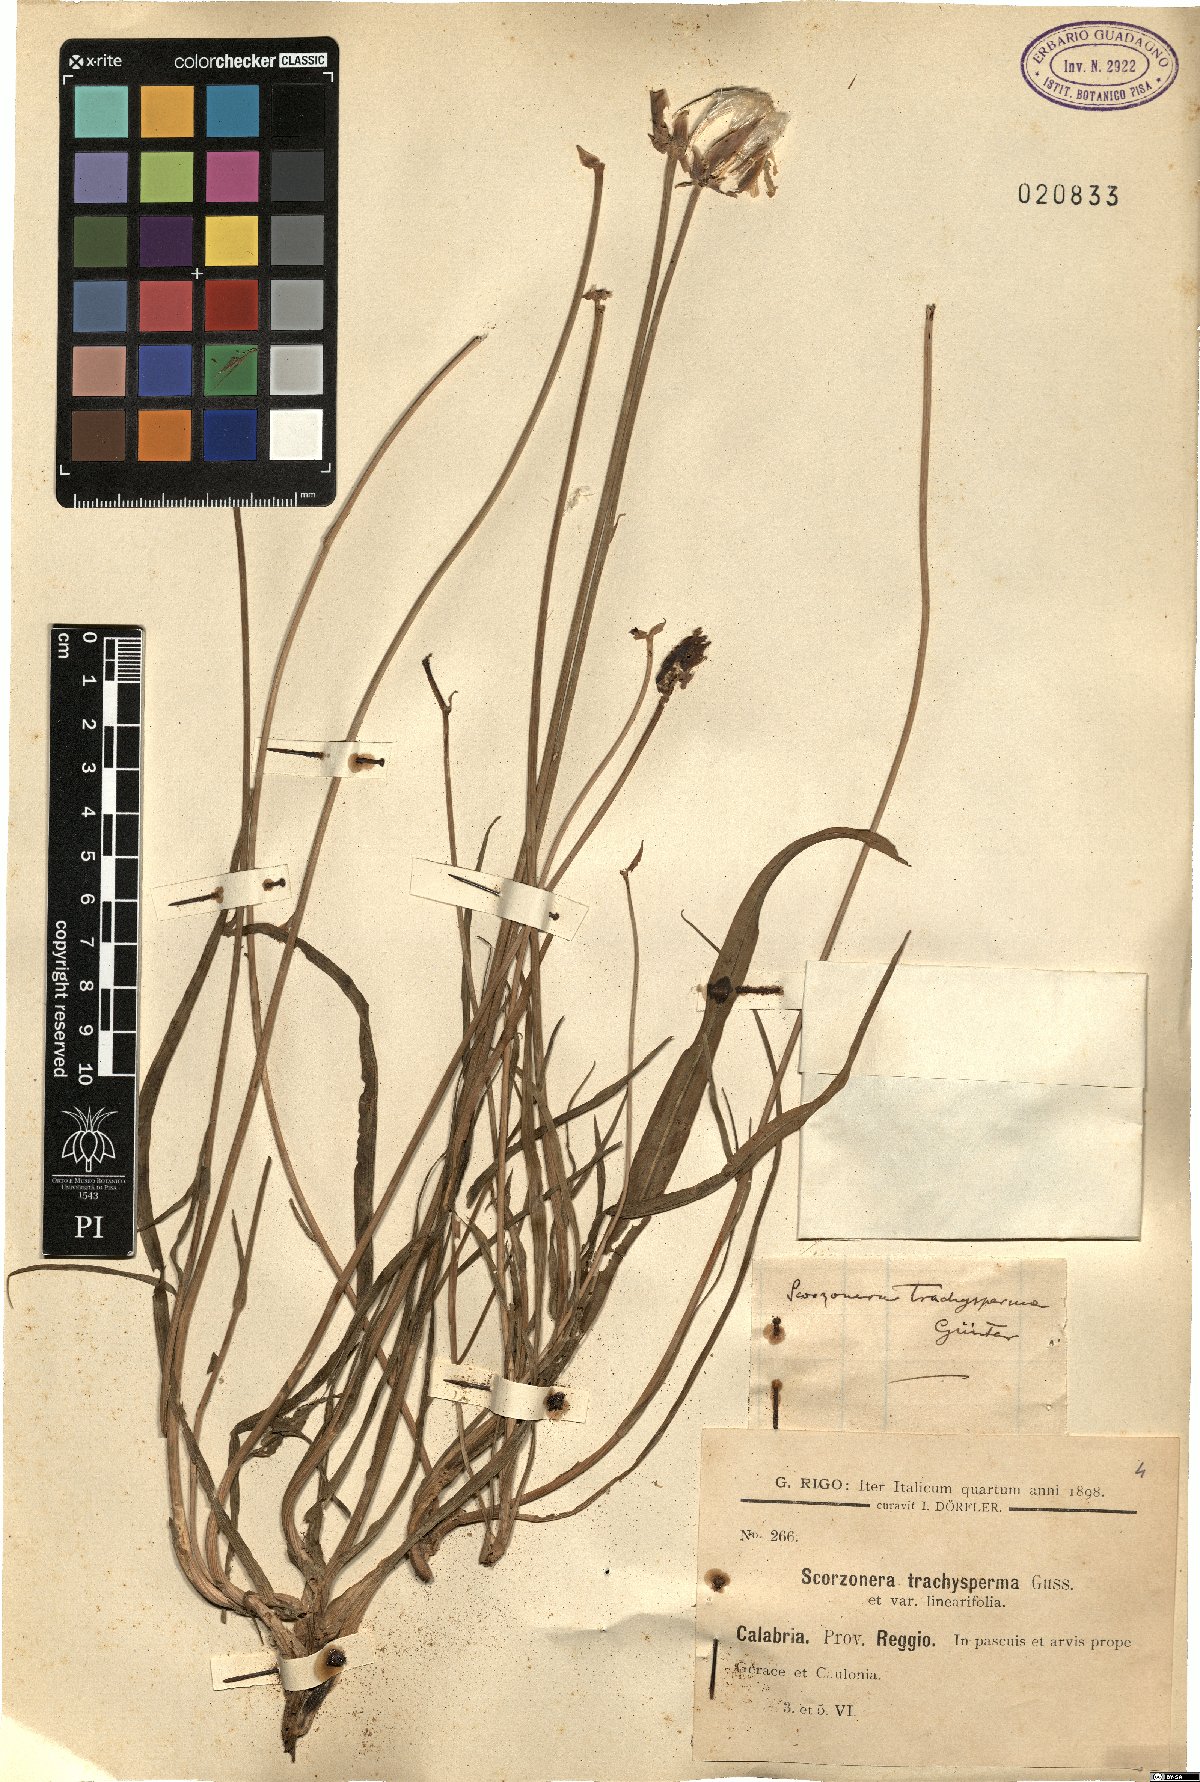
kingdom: Plantae
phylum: Tracheophyta
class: Magnoliopsida
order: Asterales
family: Asteraceae
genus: Pseudopodospermum
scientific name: Pseudopodospermum strictum
